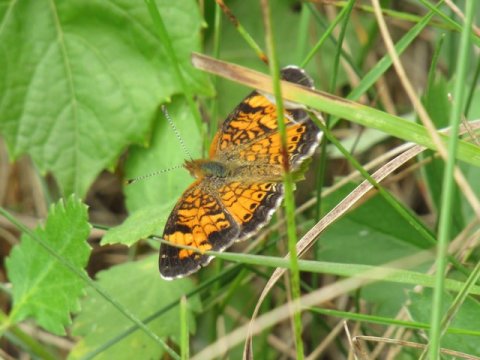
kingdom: Animalia
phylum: Arthropoda
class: Insecta
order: Lepidoptera
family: Nymphalidae
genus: Phyciodes
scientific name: Phyciodes tharos
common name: Pearl Crescent
